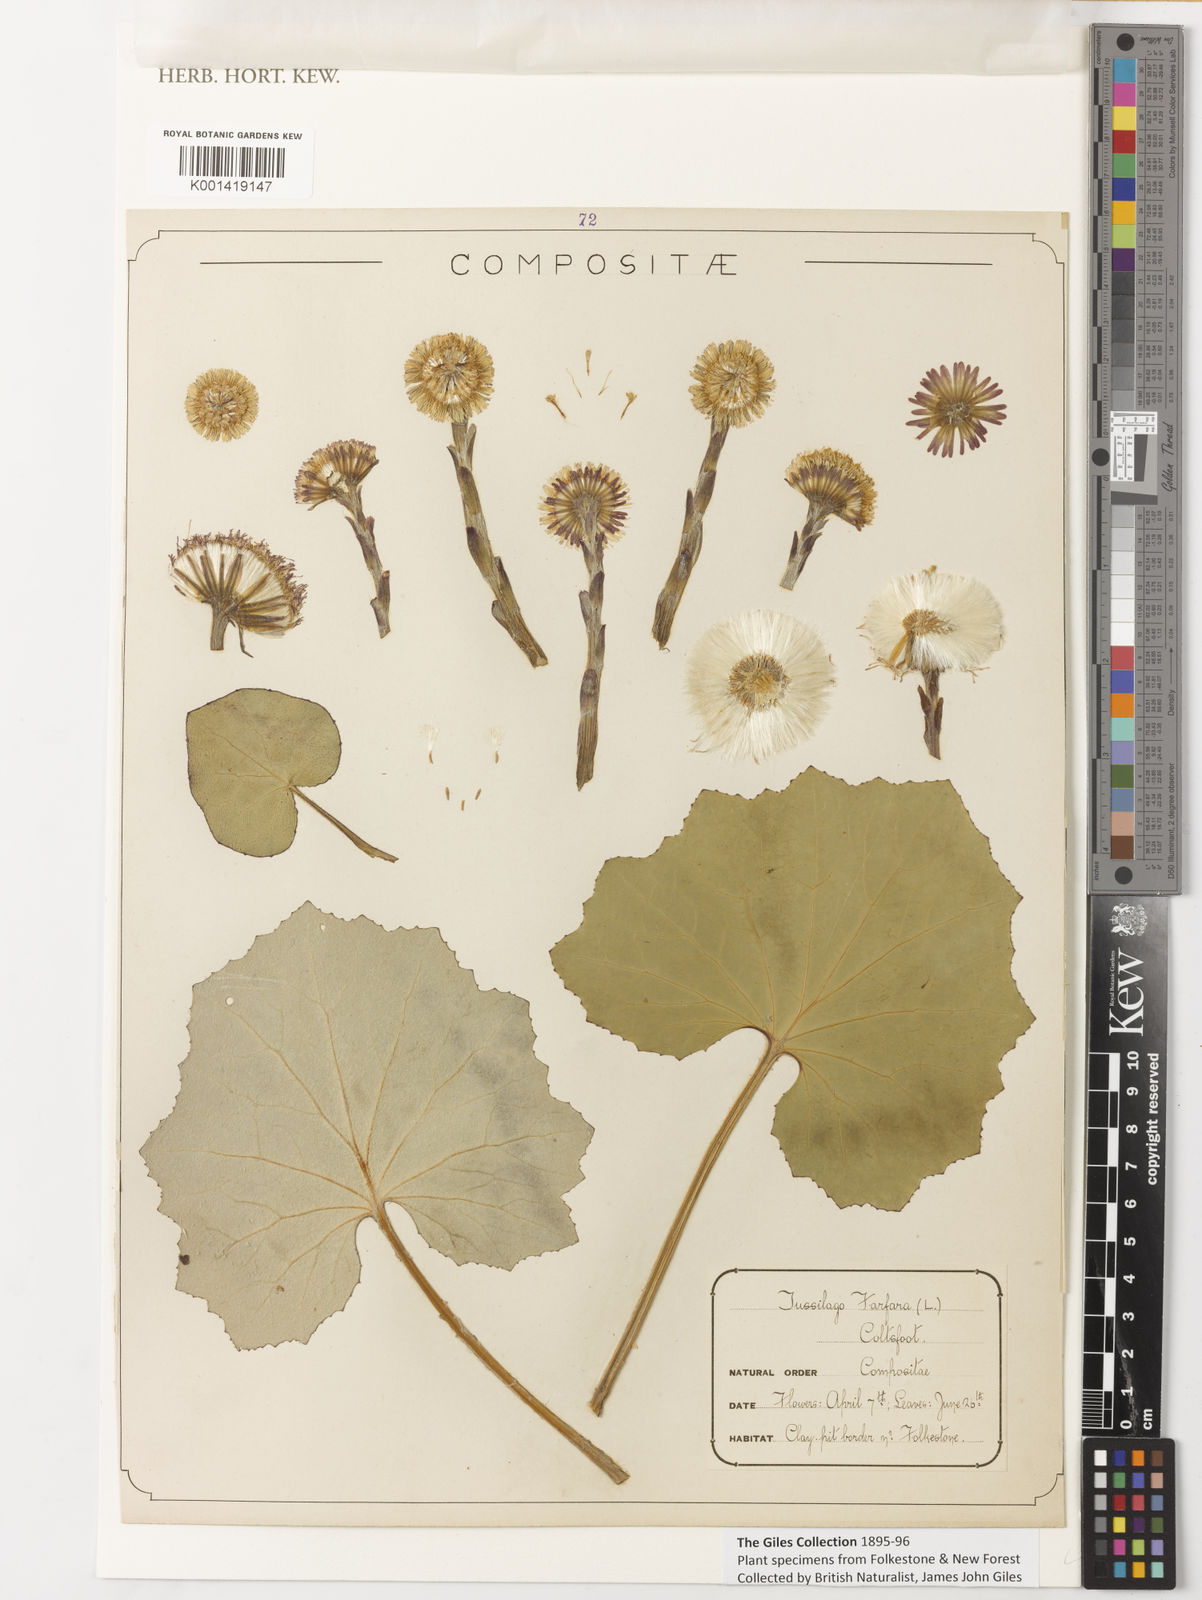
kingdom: Plantae
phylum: Tracheophyta
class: Magnoliopsida
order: Asterales
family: Asteraceae
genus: Tussilago
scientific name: Tussilago farfara
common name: Coltsfoot
